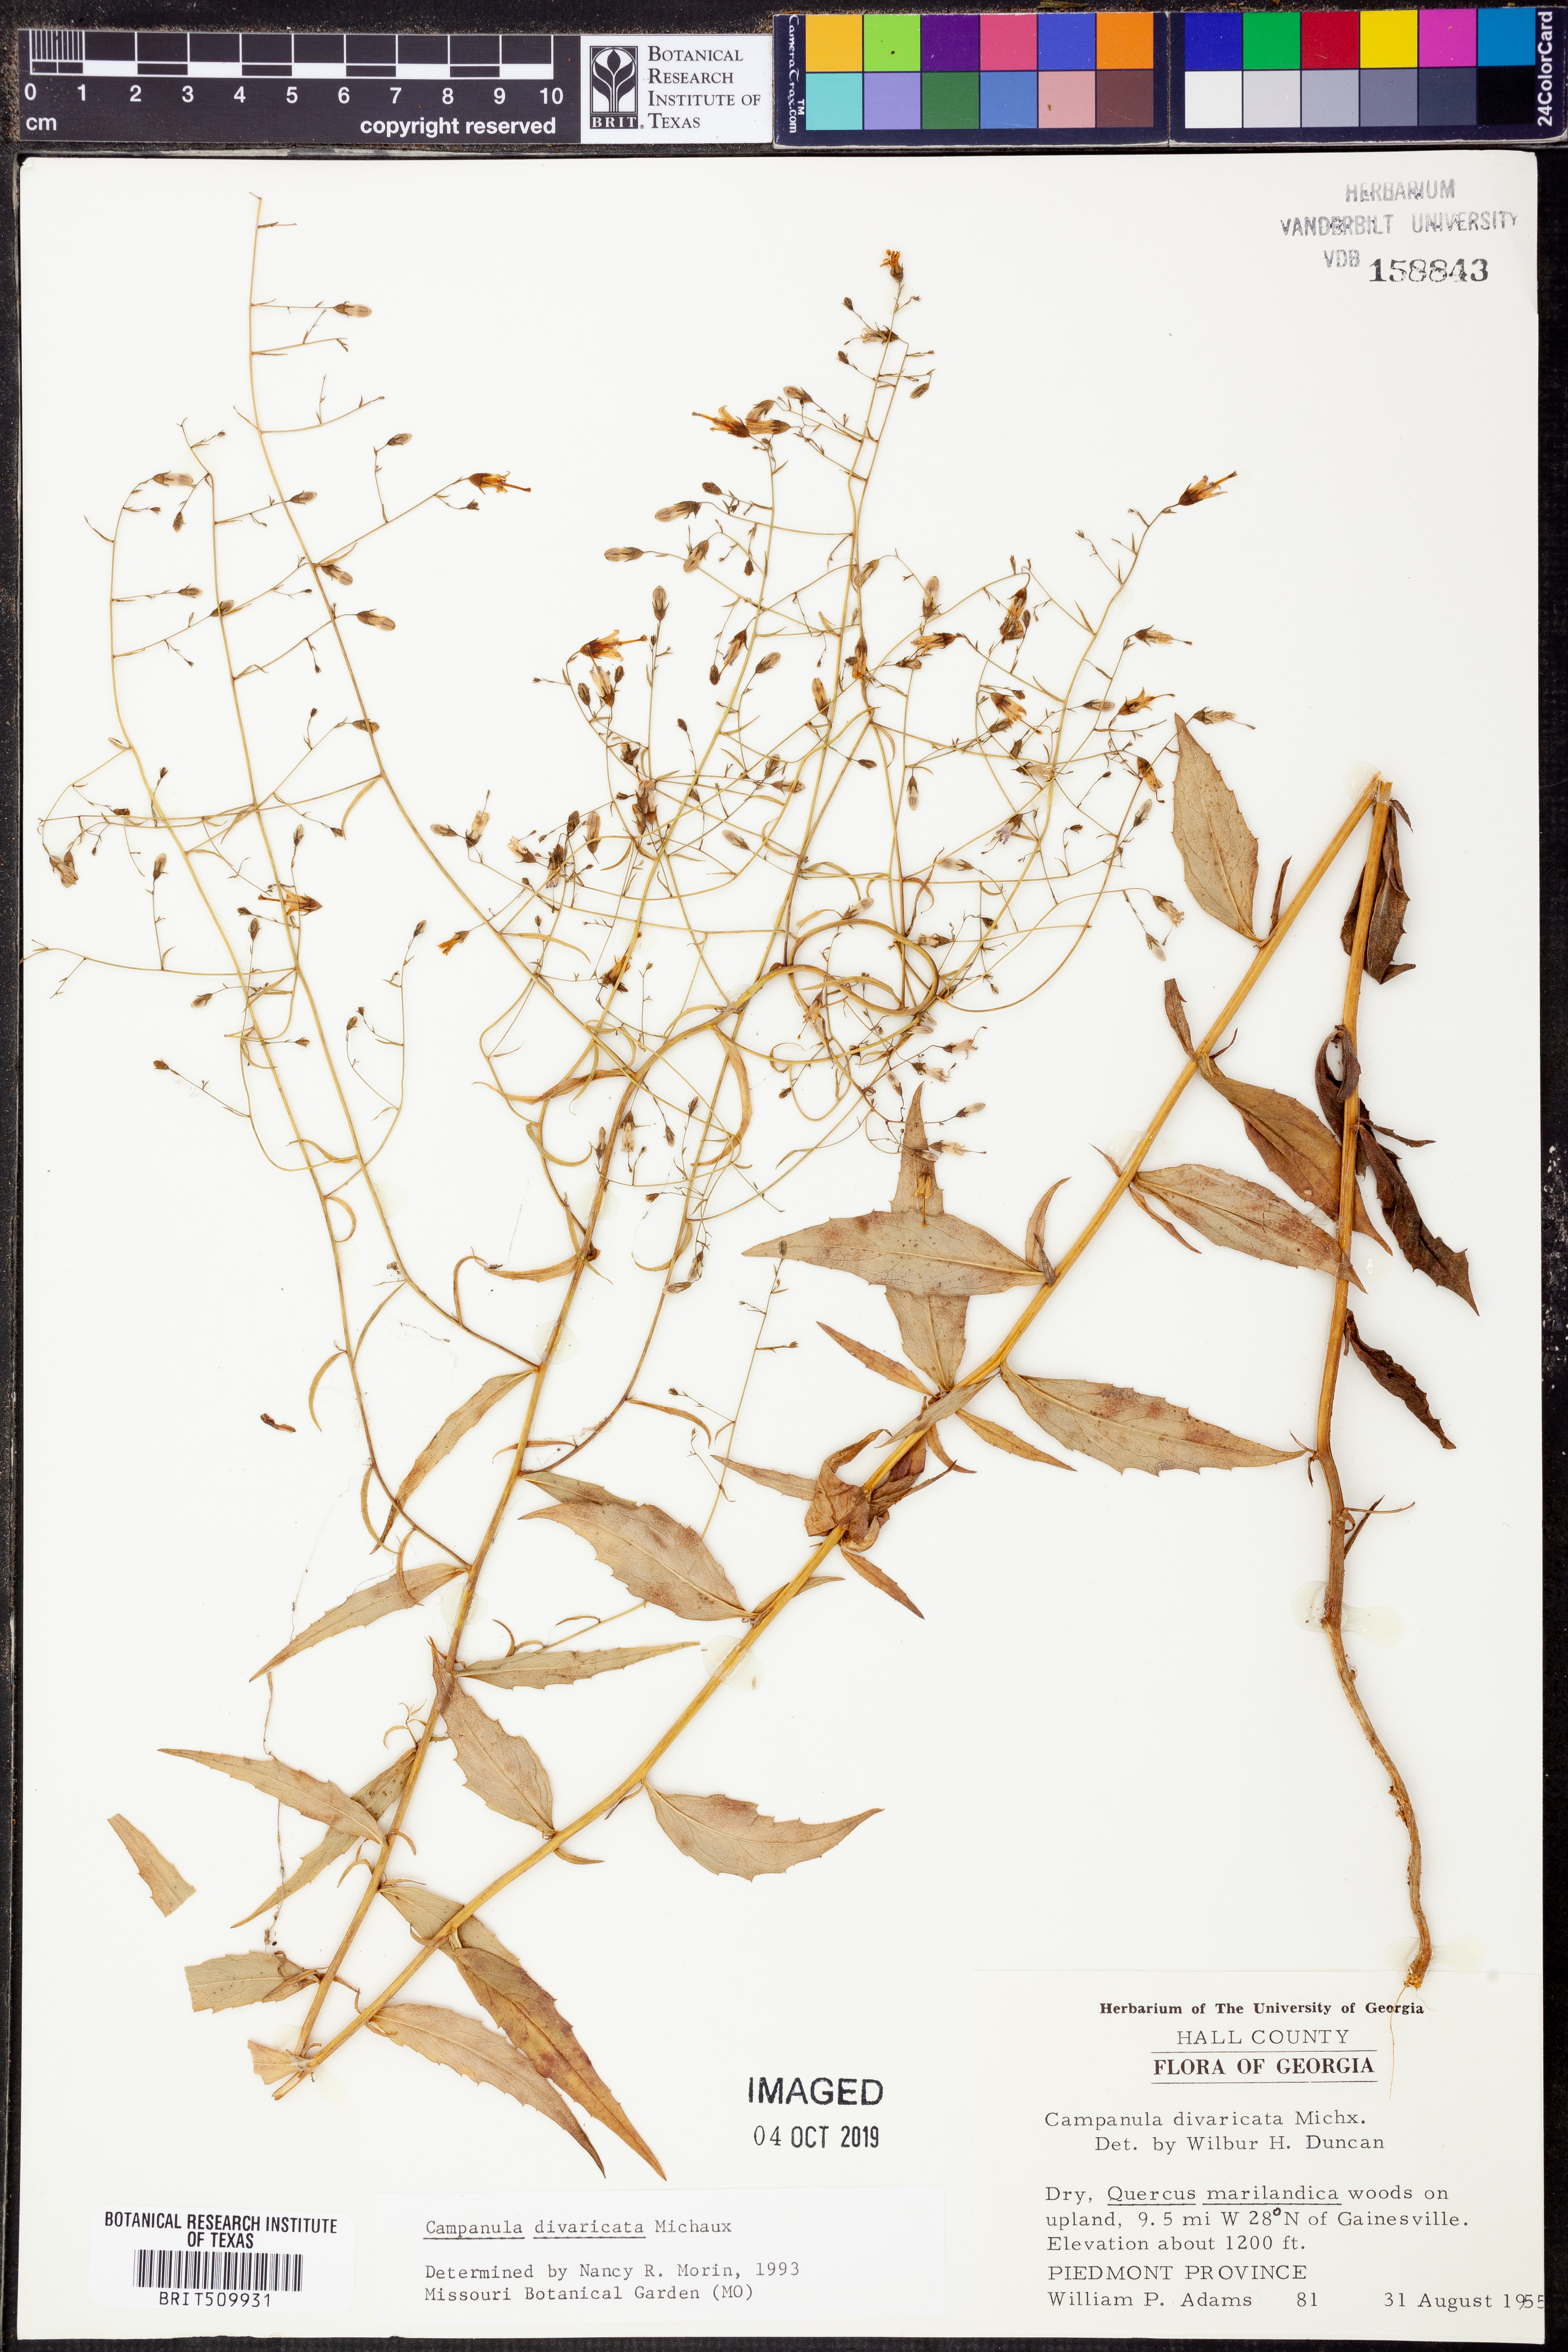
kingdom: Plantae
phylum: Tracheophyta
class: Magnoliopsida
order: Asterales
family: Campanulaceae
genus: Campanula
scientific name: Campanula divaricata
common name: Appalachian bellflower
